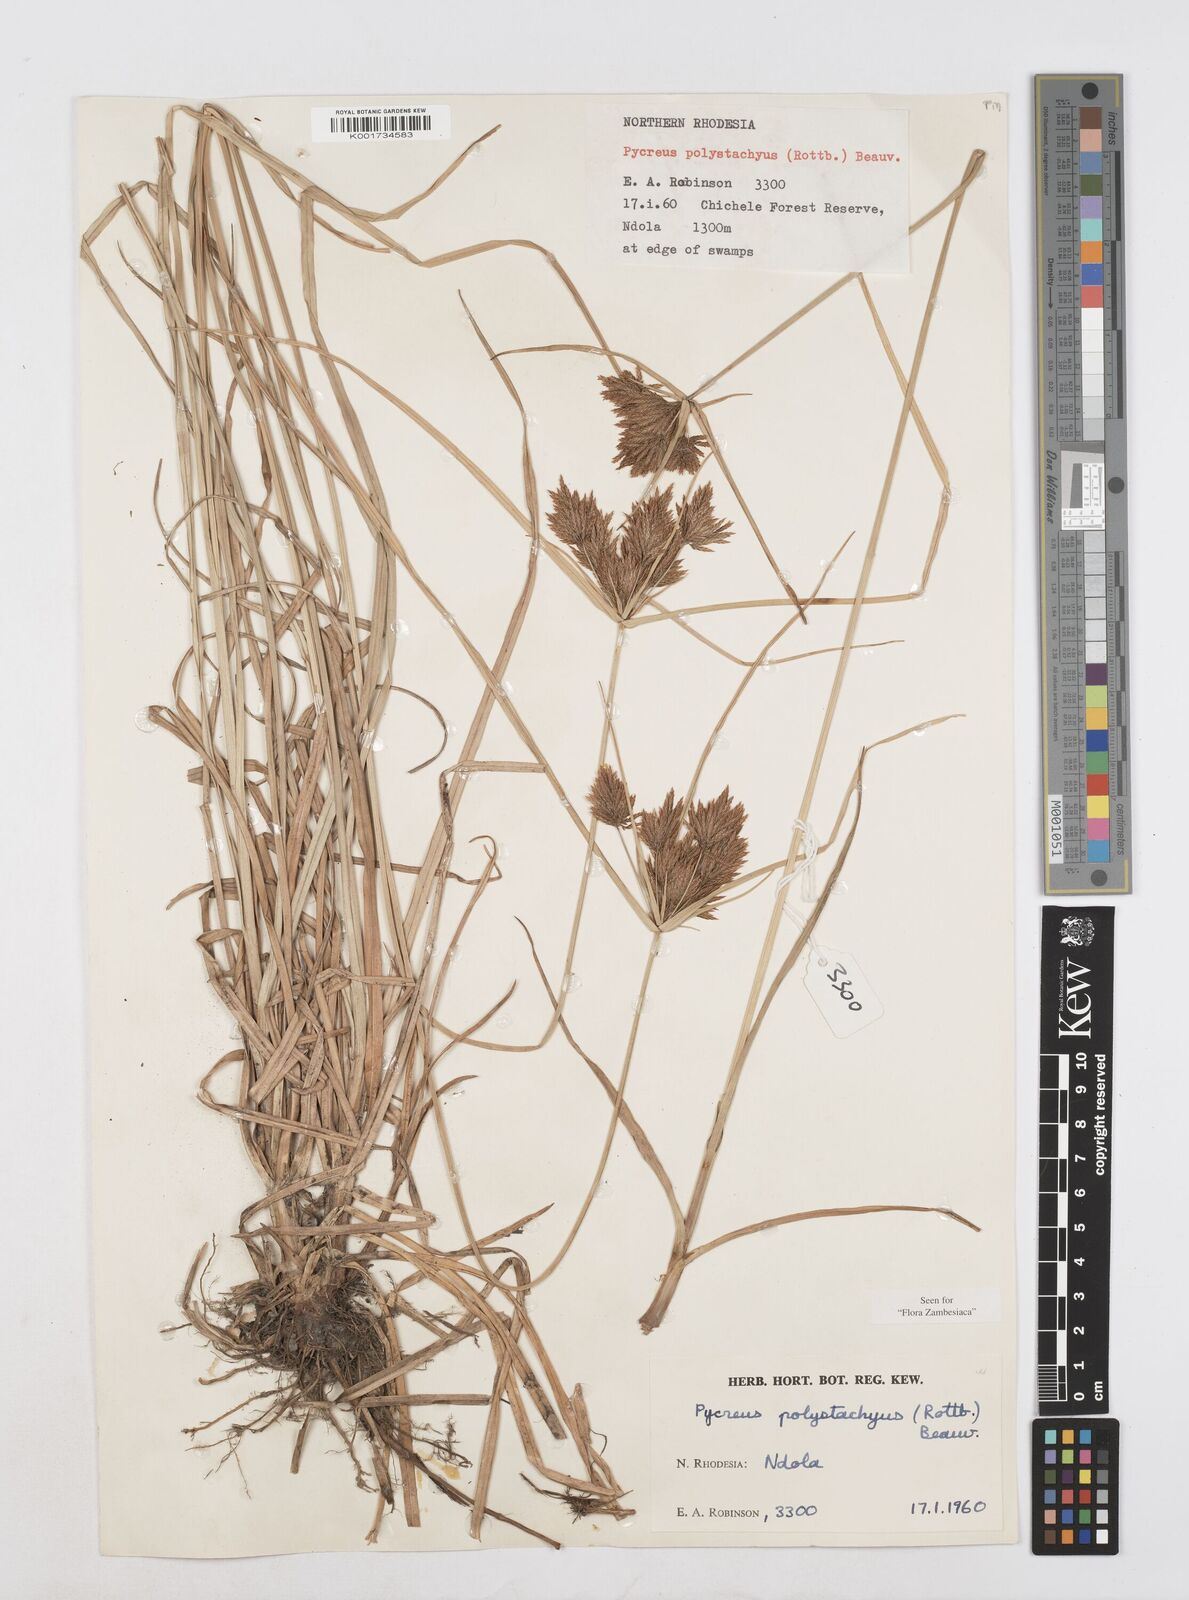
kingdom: Plantae
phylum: Tracheophyta
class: Liliopsida
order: Poales
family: Cyperaceae
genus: Cyperus
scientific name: Cyperus polystachyos
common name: Bunchy flat sedge
